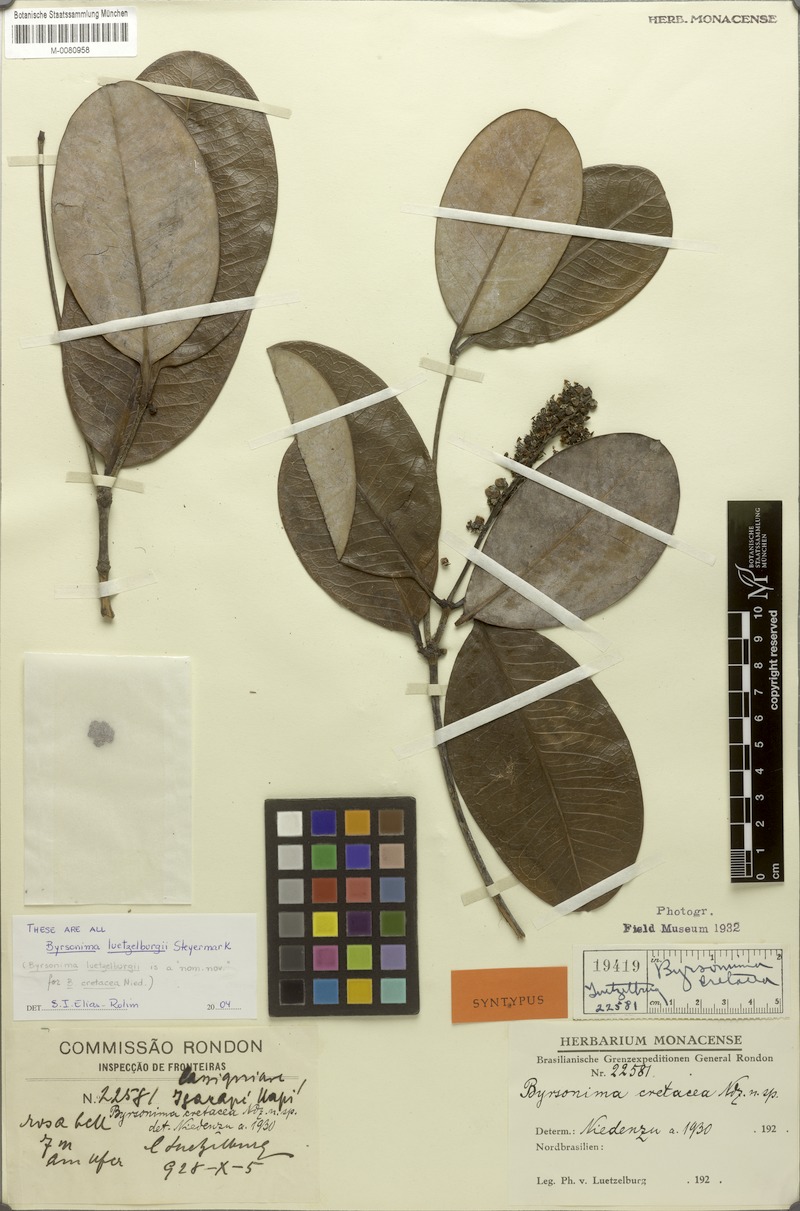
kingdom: Plantae
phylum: Tracheophyta
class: Magnoliopsida
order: Malpighiales
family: Malpighiaceae
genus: Byrsonima
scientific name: Byrsonima luetzelburgii
